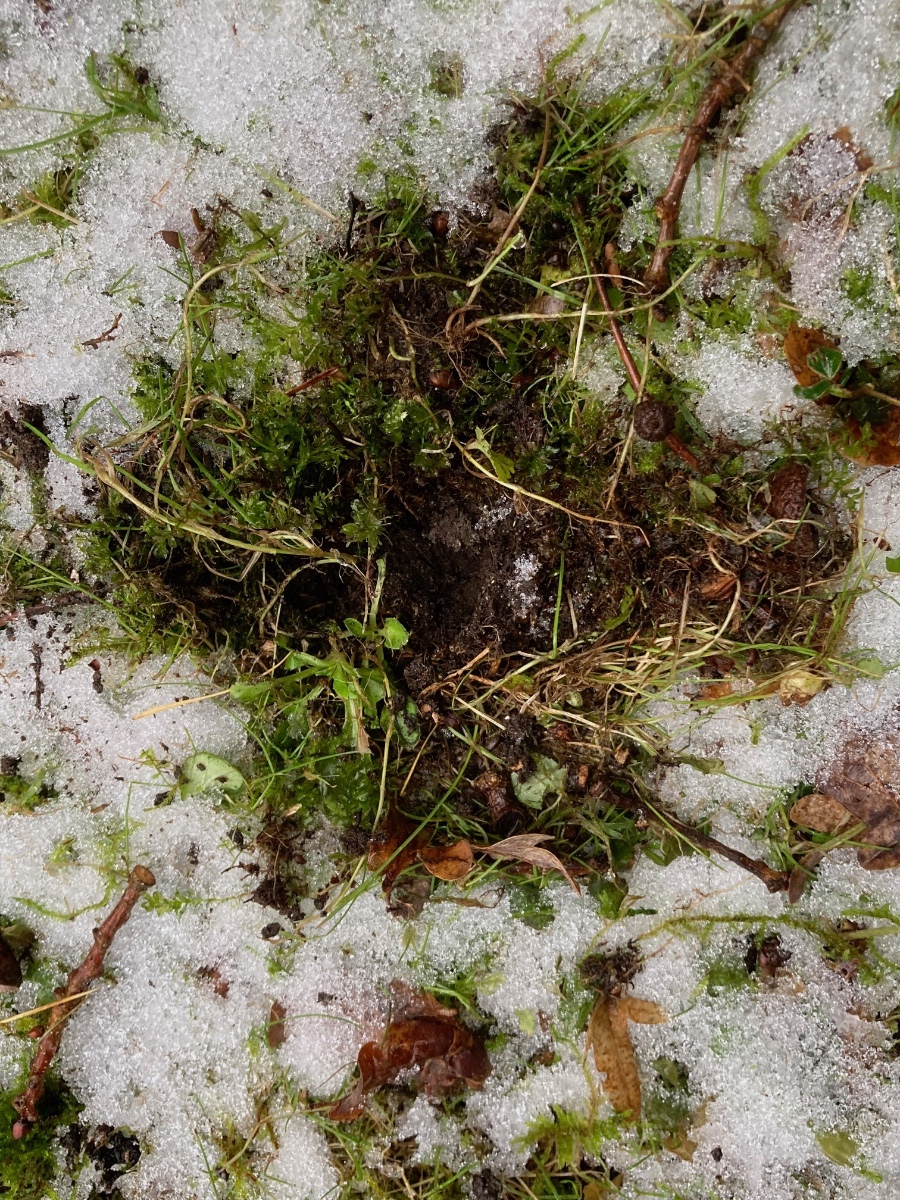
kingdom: Fungi
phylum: Basidiomycota
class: Agaricomycetes
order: Agaricales
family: Cortinariaceae
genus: Protoglossum
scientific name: Protoglossum niveum
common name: hvid knoldtrøffel
